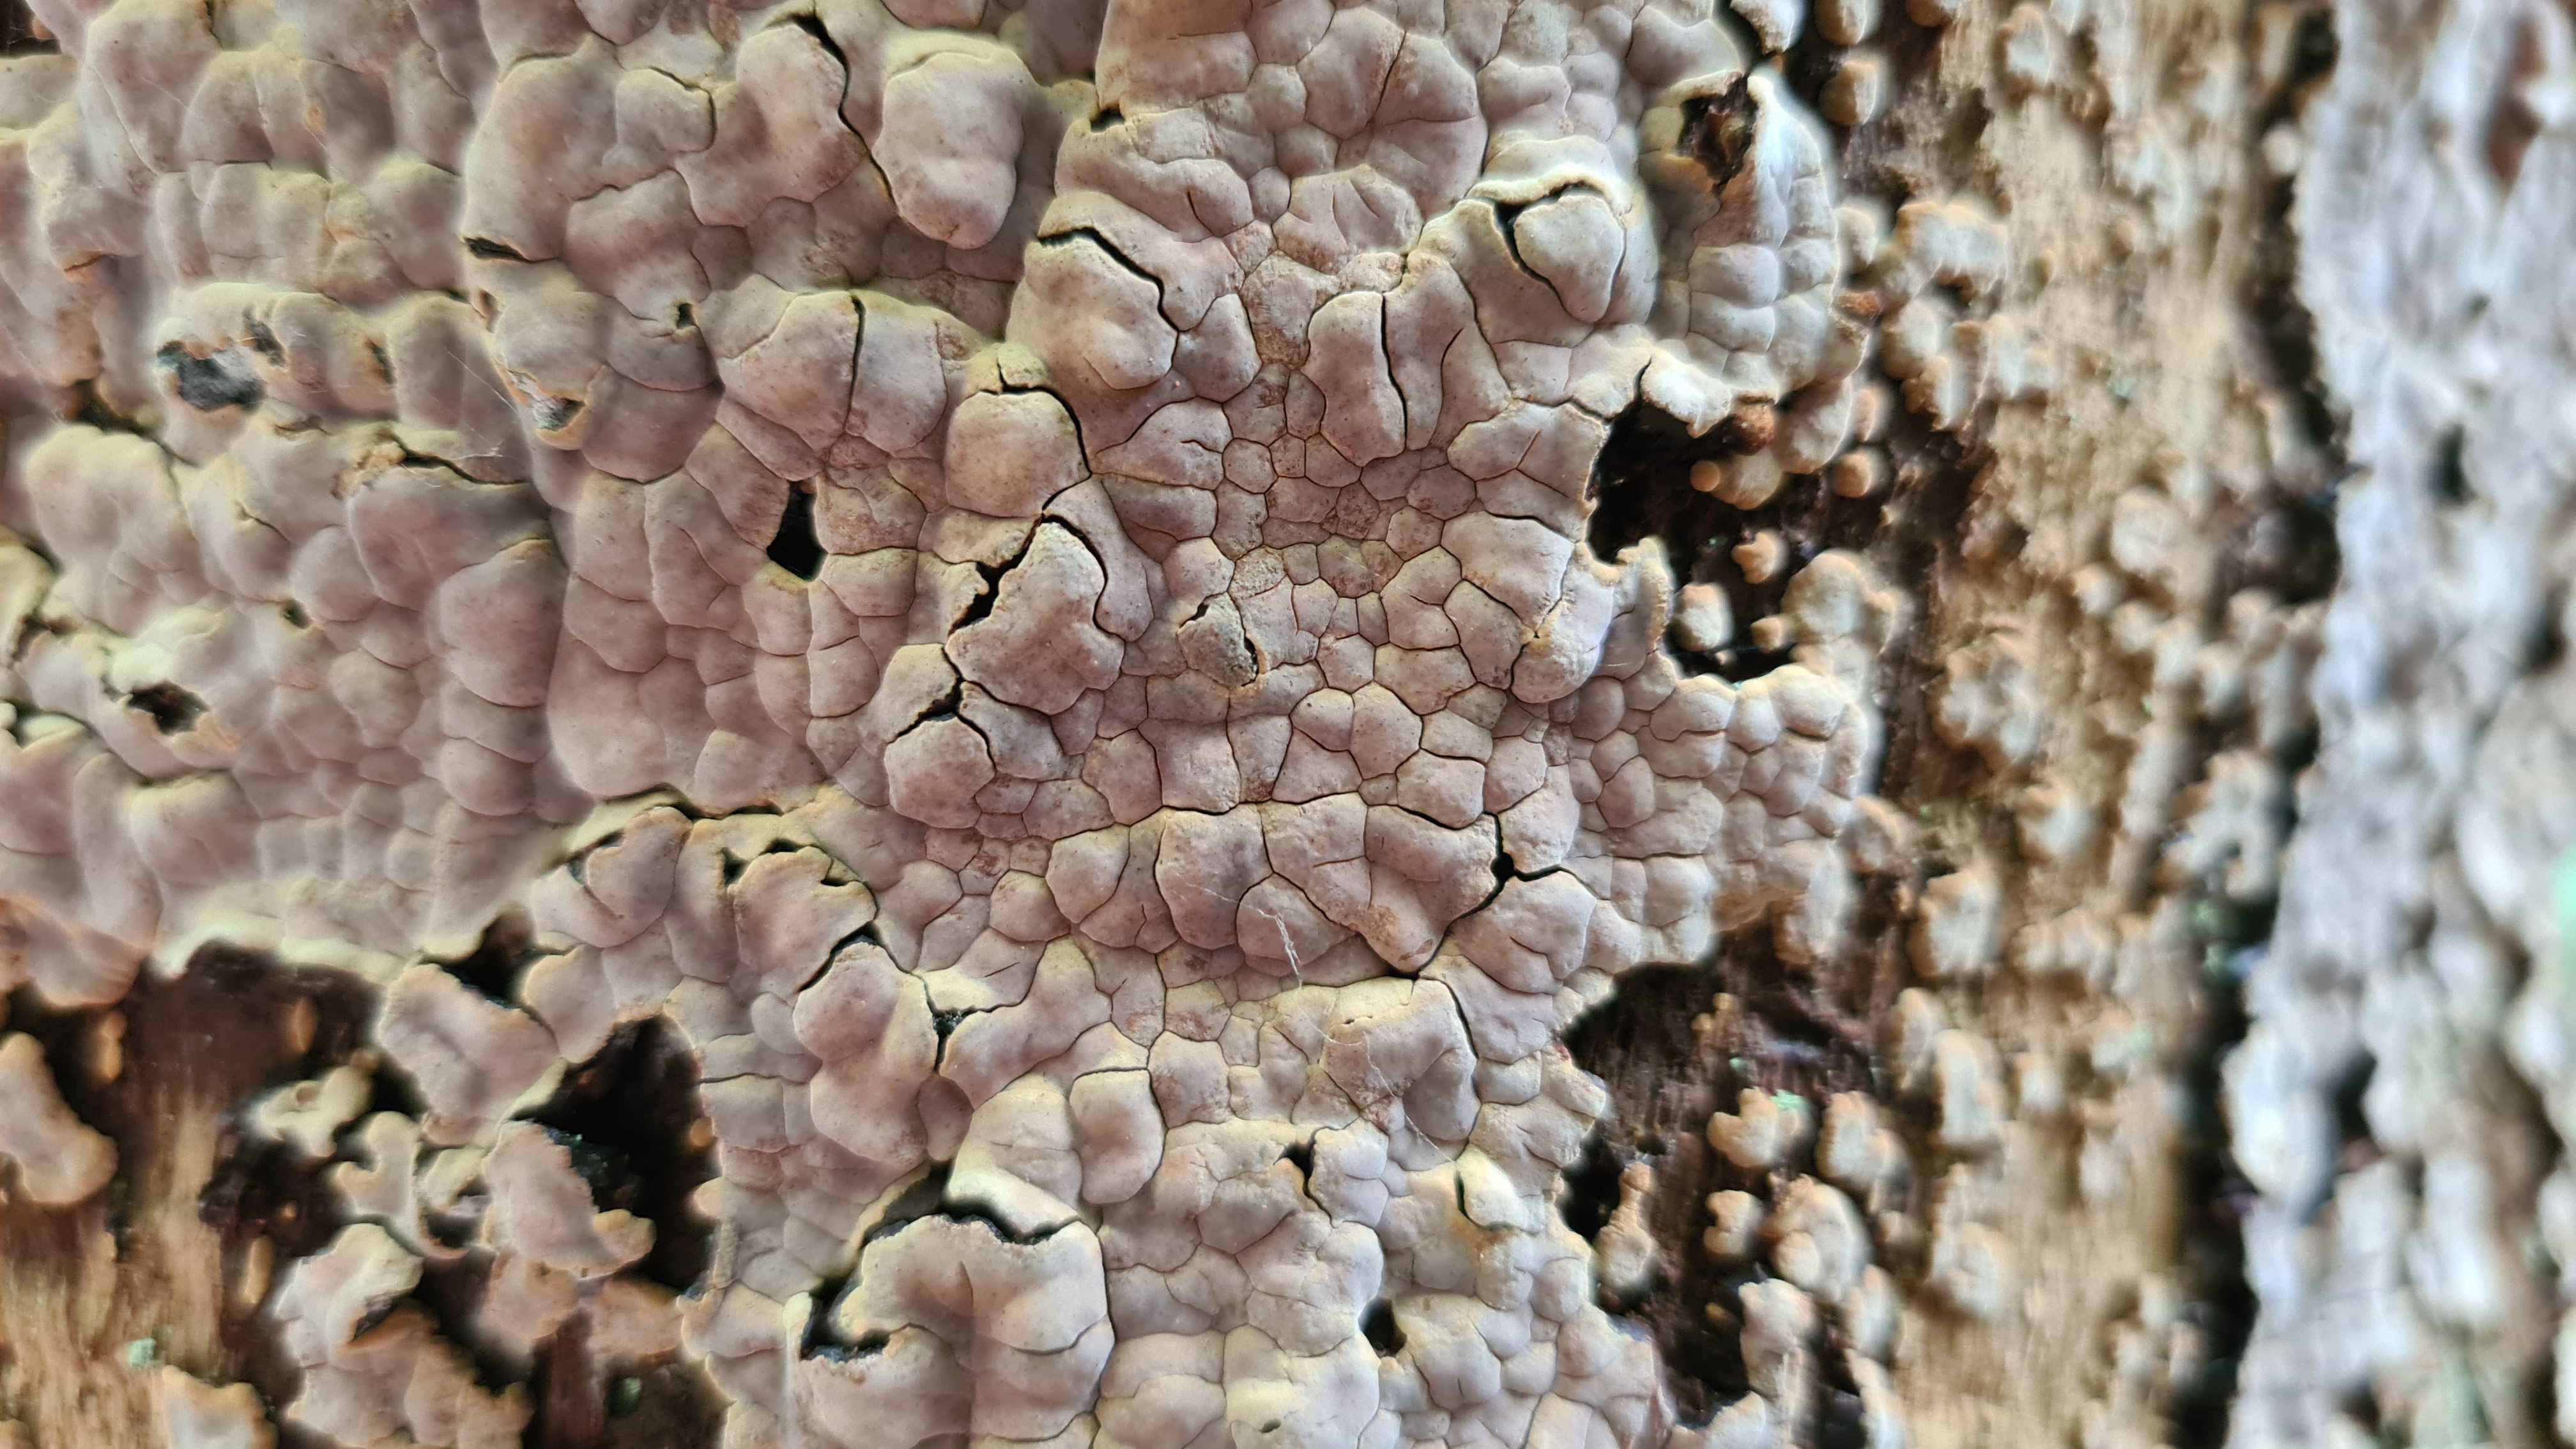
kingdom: Fungi
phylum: Basidiomycota
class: Agaricomycetes
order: Russulales
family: Peniophoraceae
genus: Peniophora
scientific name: Peniophora quercina
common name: ege-voksskind
